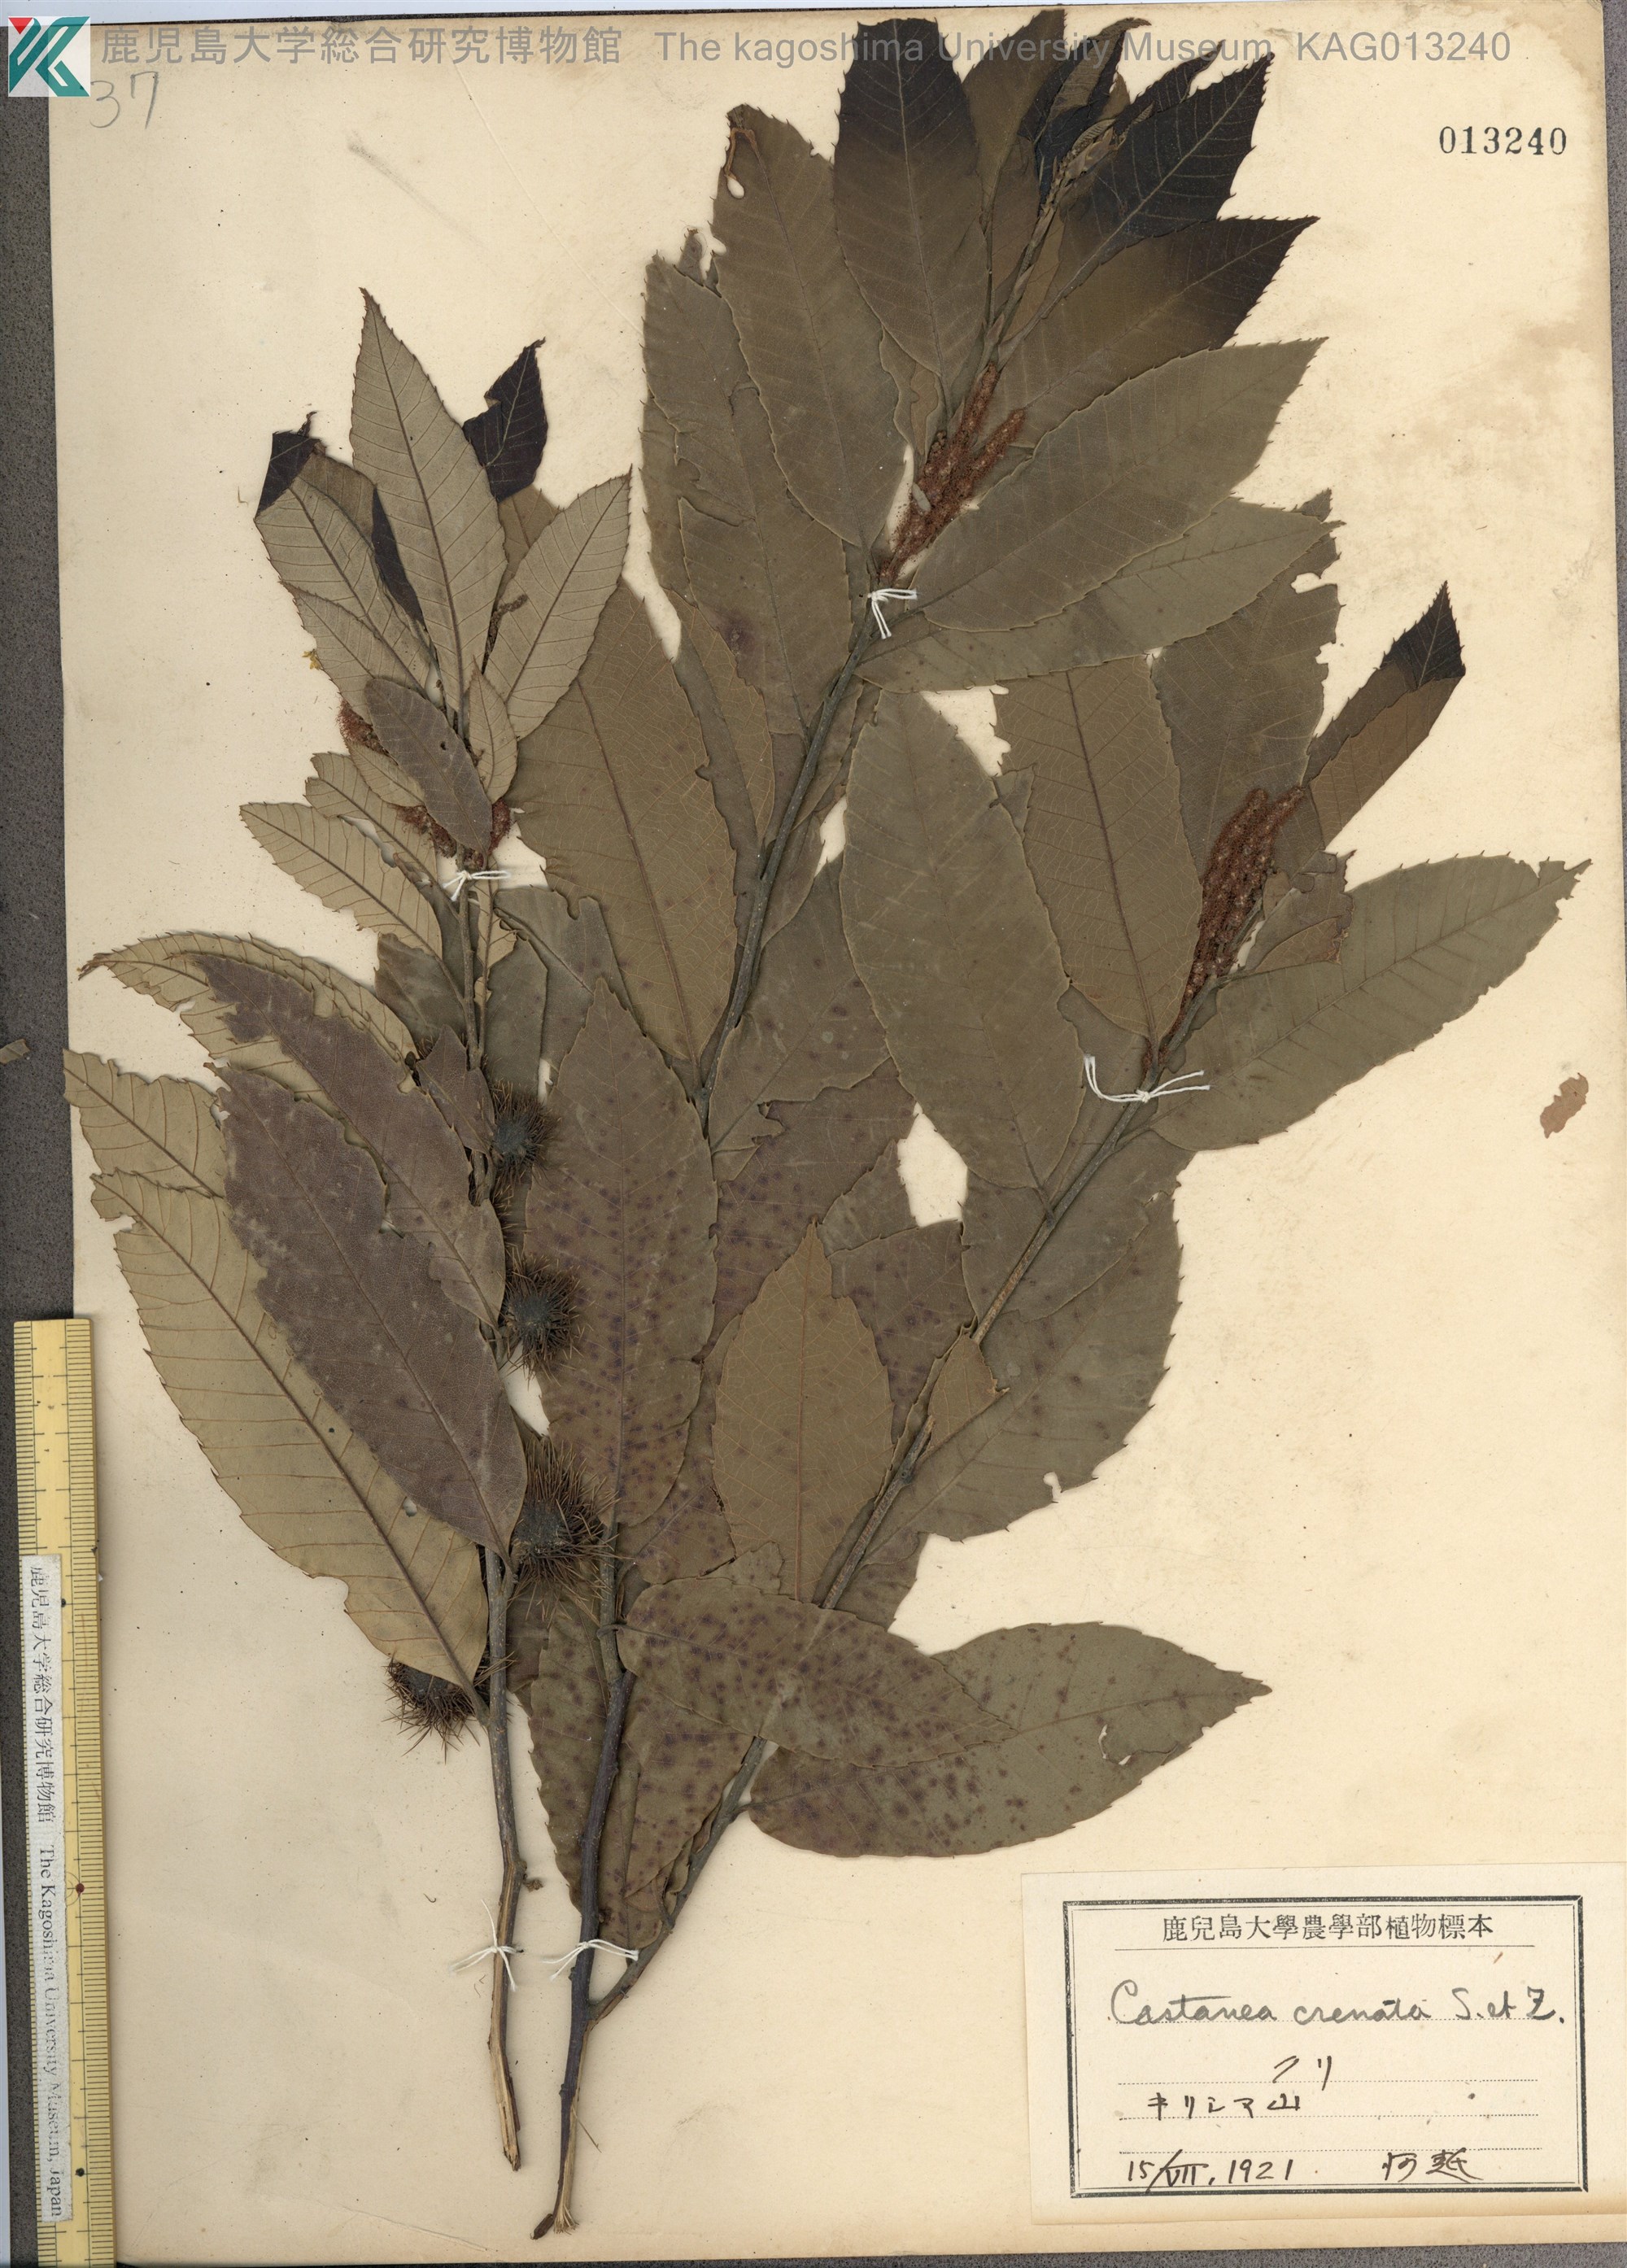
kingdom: Plantae
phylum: Tracheophyta
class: Magnoliopsida
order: Fagales
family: Fagaceae
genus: Castanea
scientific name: Castanea crenata
